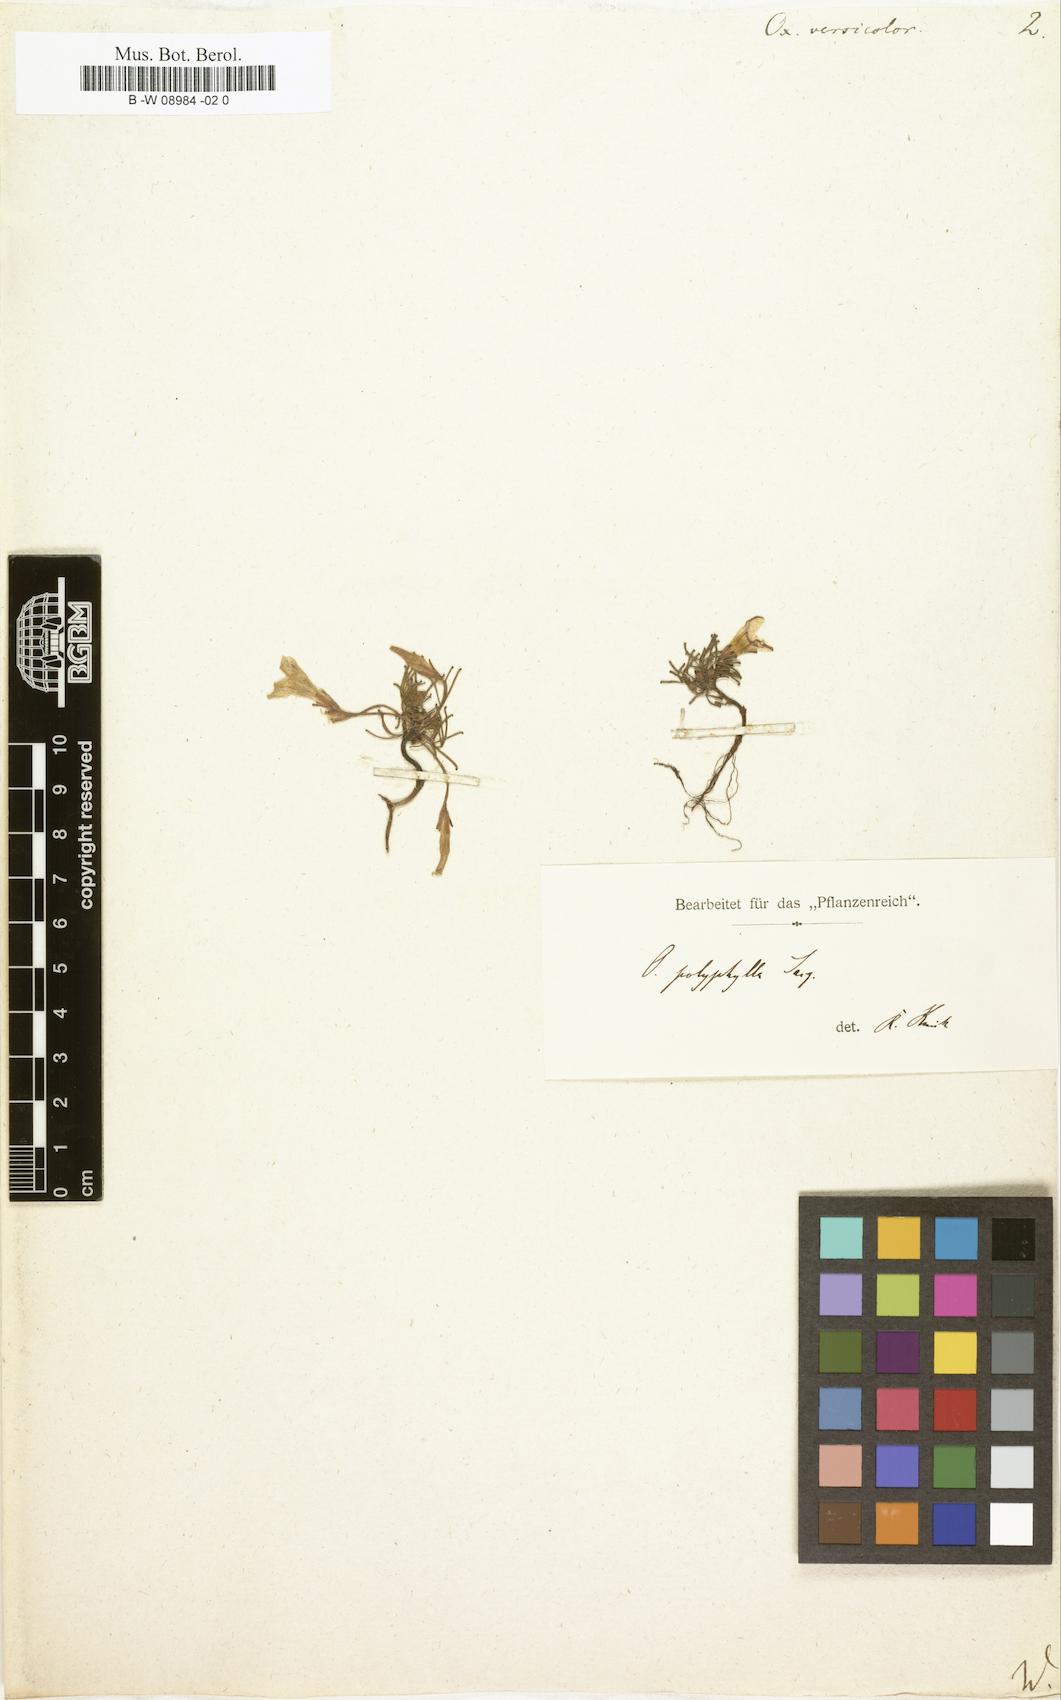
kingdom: Plantae
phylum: Tracheophyta
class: Magnoliopsida
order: Oxalidales
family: Oxalidaceae
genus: Oxalis
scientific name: Oxalis versicolor
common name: Peppermint rock oxalis
